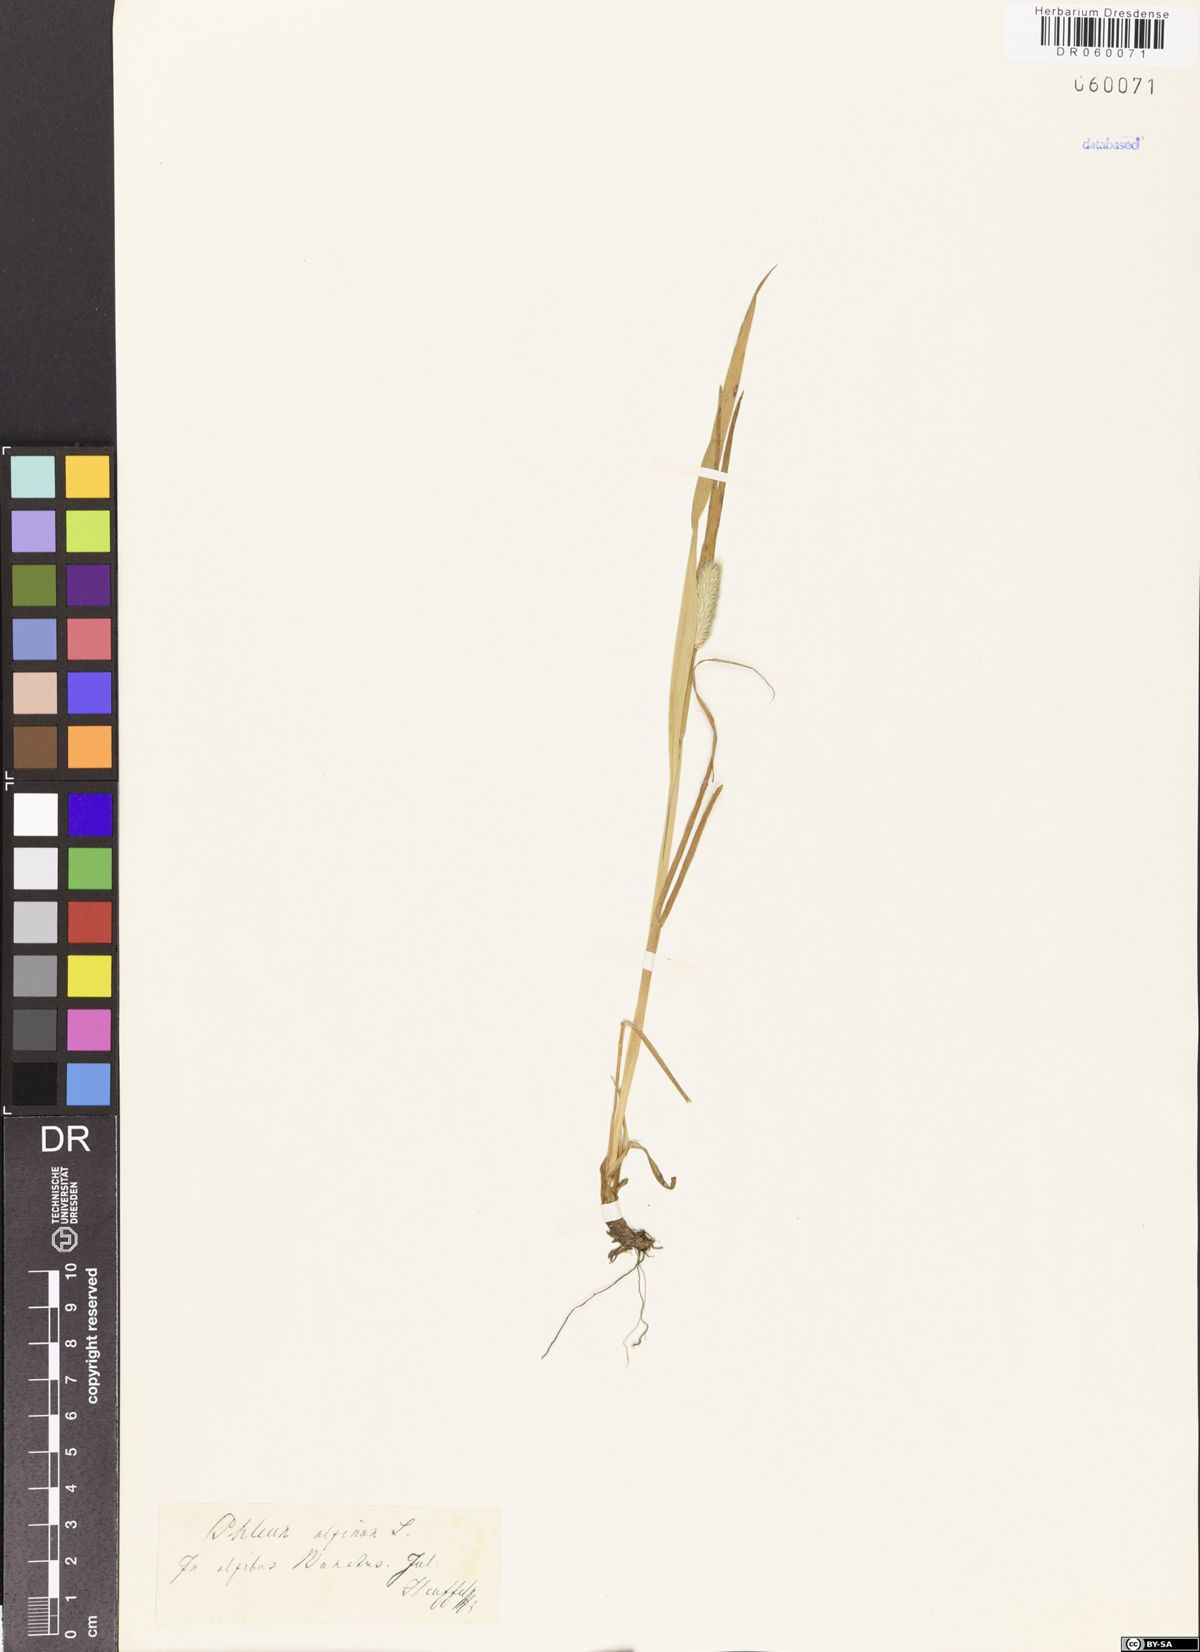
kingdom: Plantae
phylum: Tracheophyta
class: Liliopsida
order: Poales
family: Poaceae
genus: Phleum
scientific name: Phleum alpinum
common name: Alpine cat's-tail
